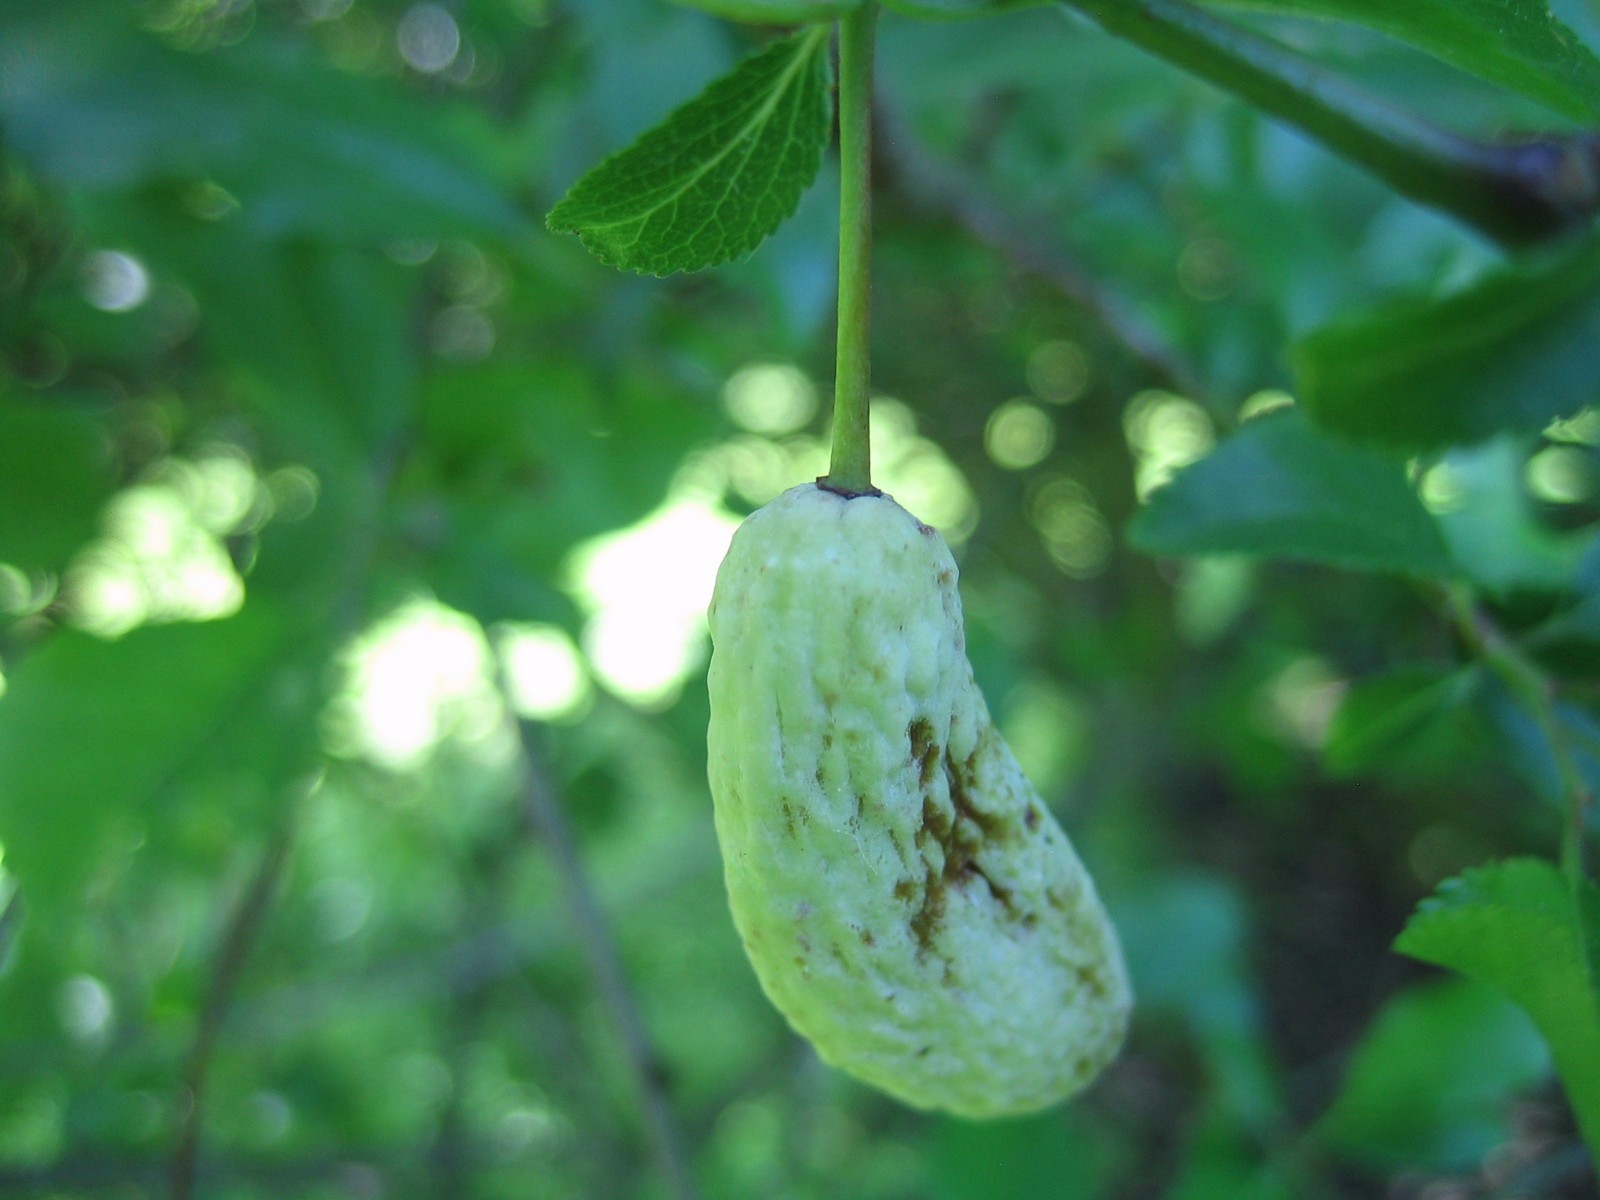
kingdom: Fungi
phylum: Ascomycota
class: Taphrinomycetes
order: Taphrinales
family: Taphrinaceae
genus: Taphrina
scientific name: Taphrina pruni
